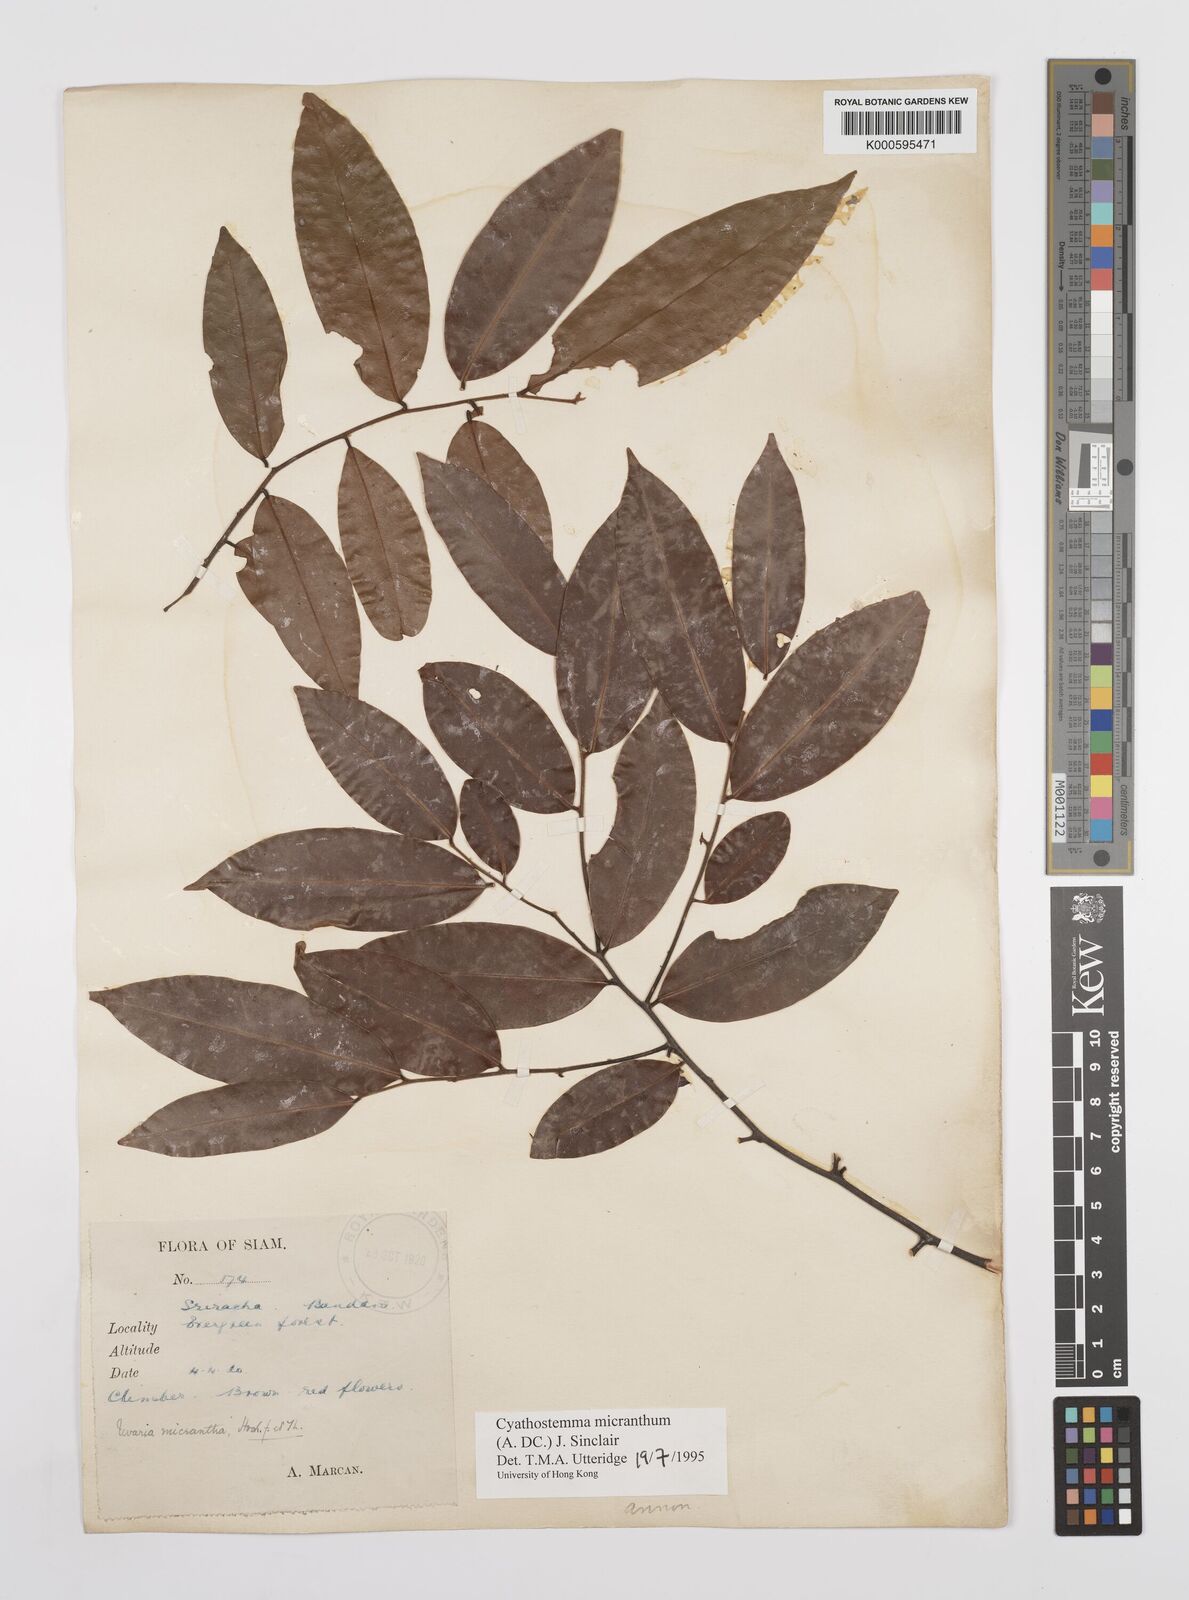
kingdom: Plantae
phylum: Tracheophyta
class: Magnoliopsida
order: Magnoliales
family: Annonaceae
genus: Uvaria
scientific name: Uvaria micrantha
